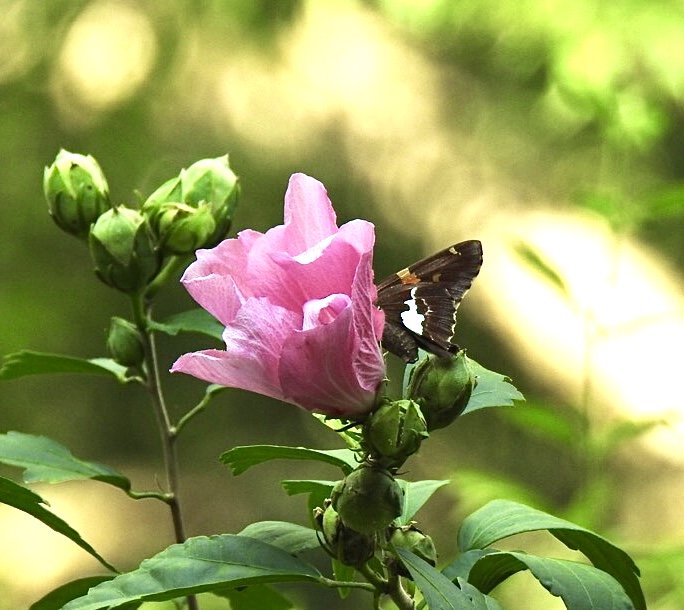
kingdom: Animalia
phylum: Arthropoda
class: Insecta
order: Lepidoptera
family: Hesperiidae
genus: Epargyreus
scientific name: Epargyreus clarus
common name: Silver-spotted Skipper
